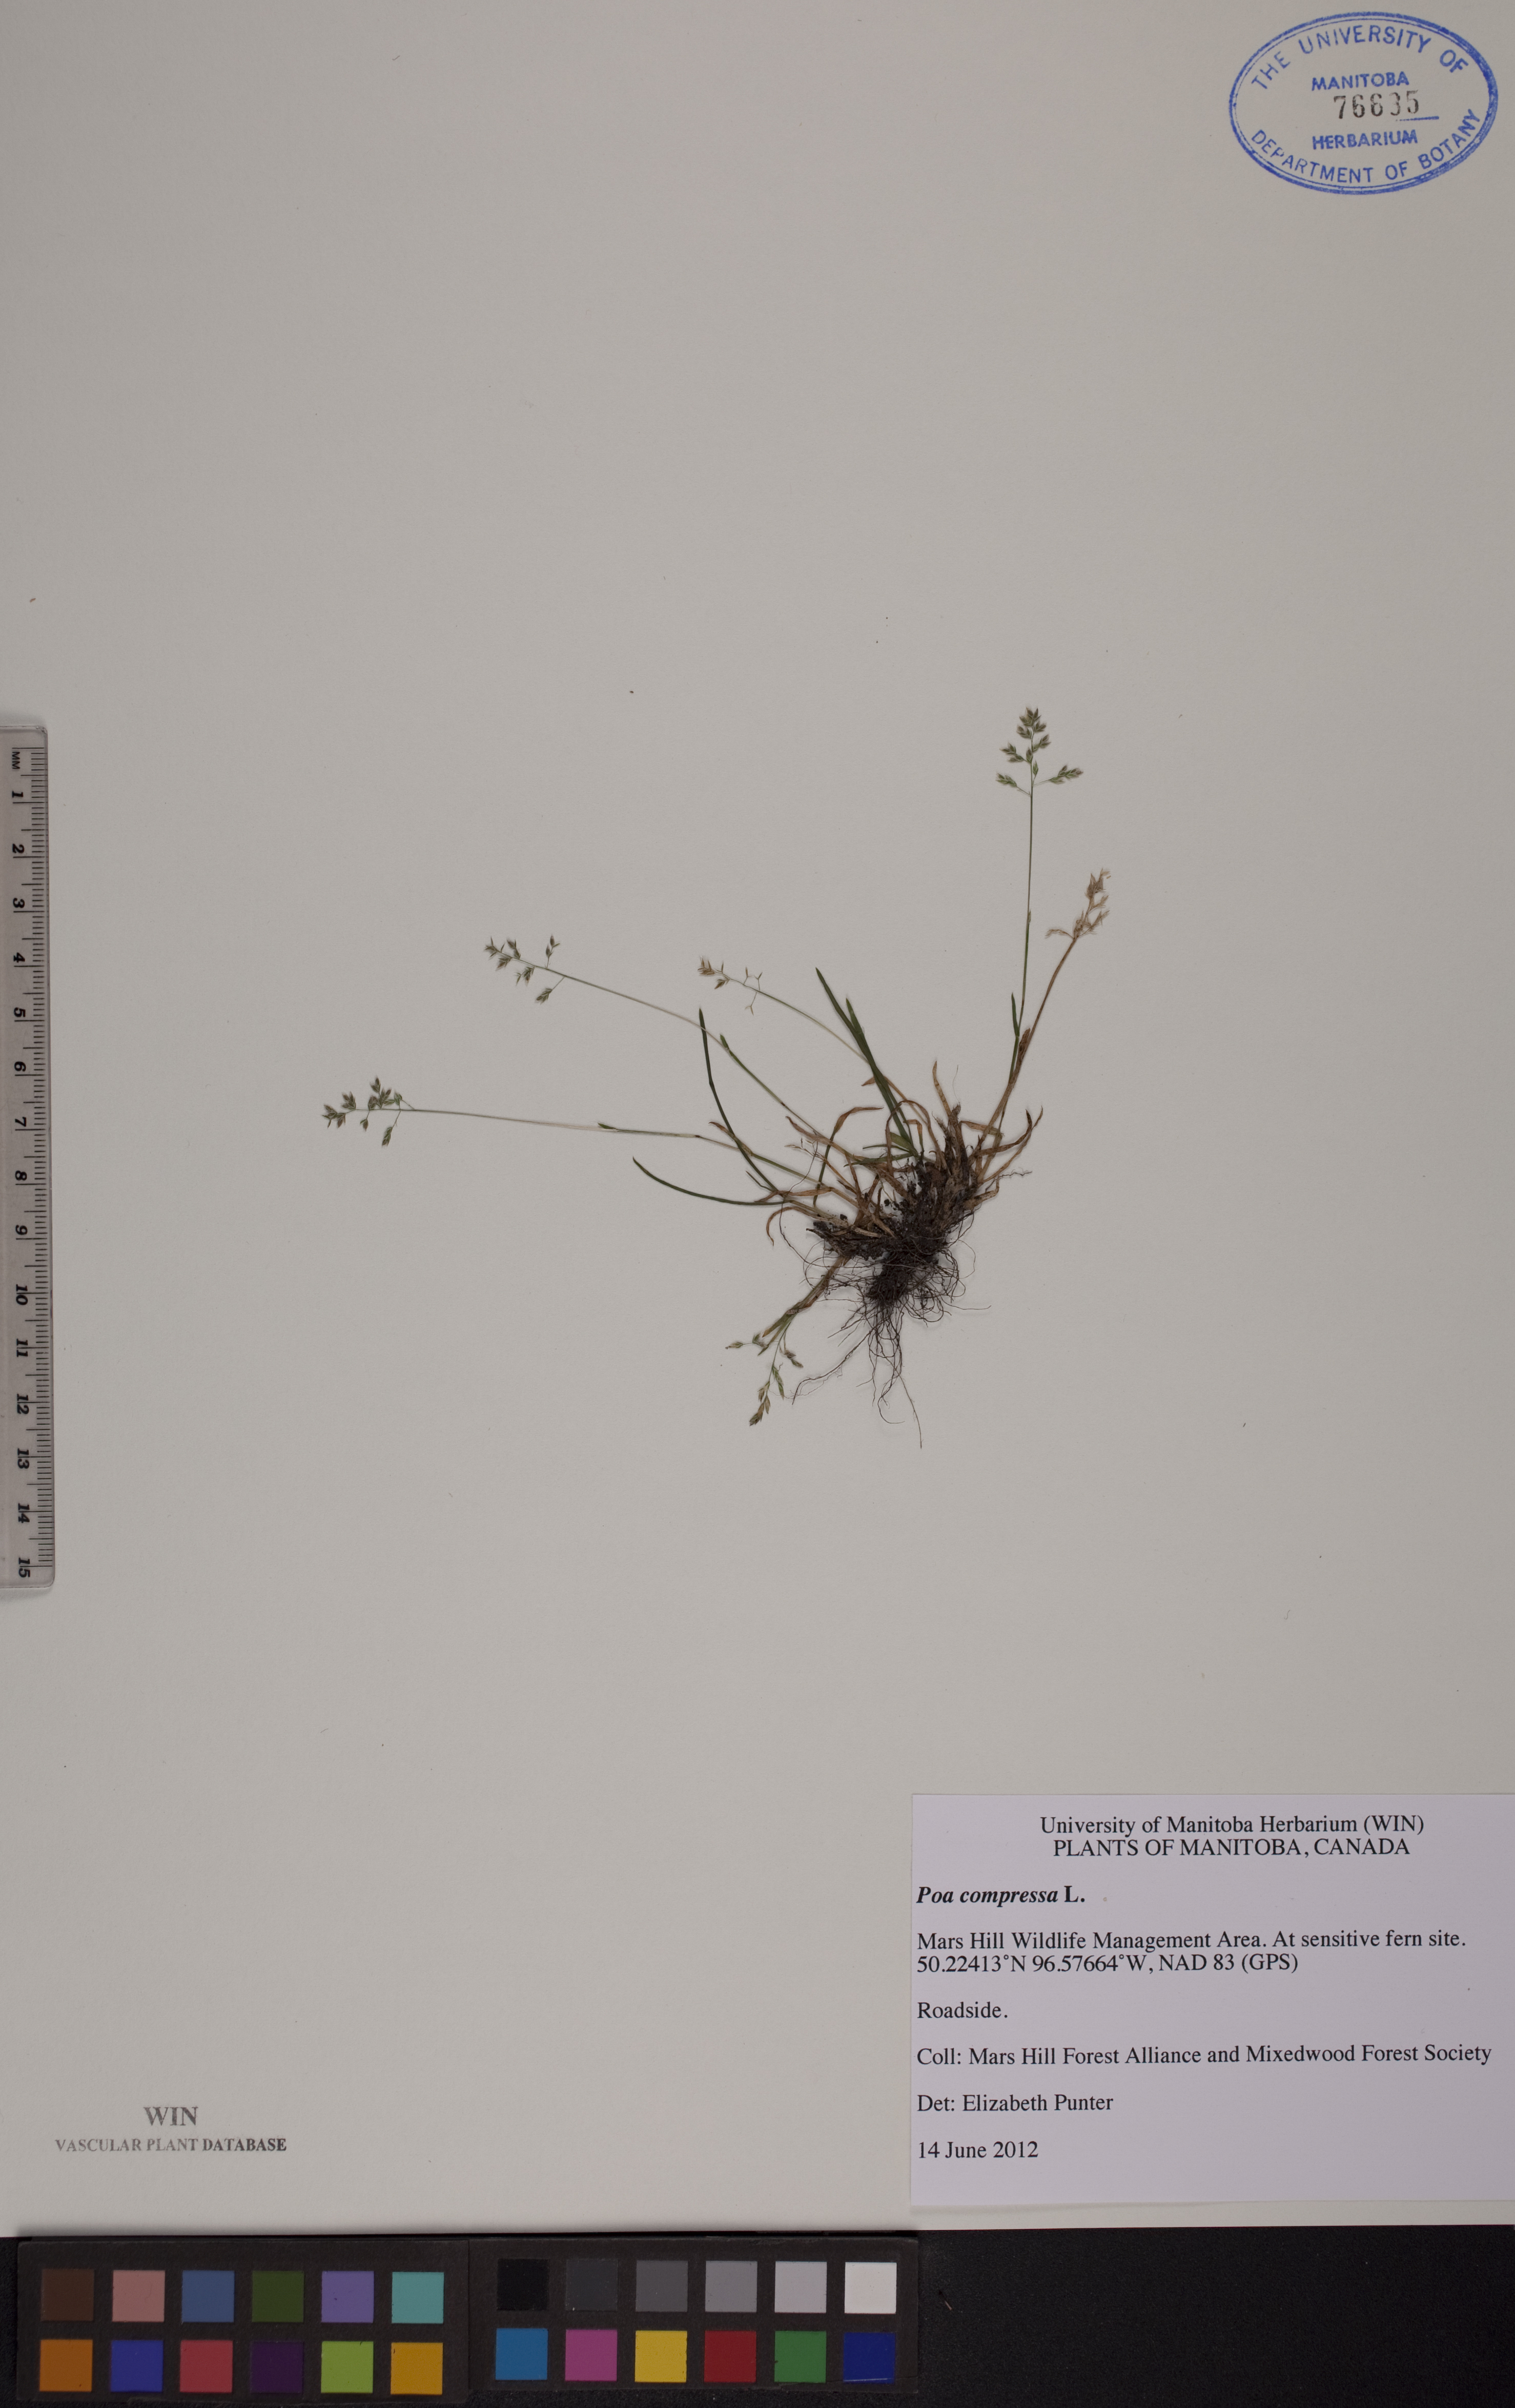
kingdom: Plantae
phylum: Tracheophyta
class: Liliopsida
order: Poales
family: Poaceae
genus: Poa
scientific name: Poa compressa
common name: Canada bluegrass
